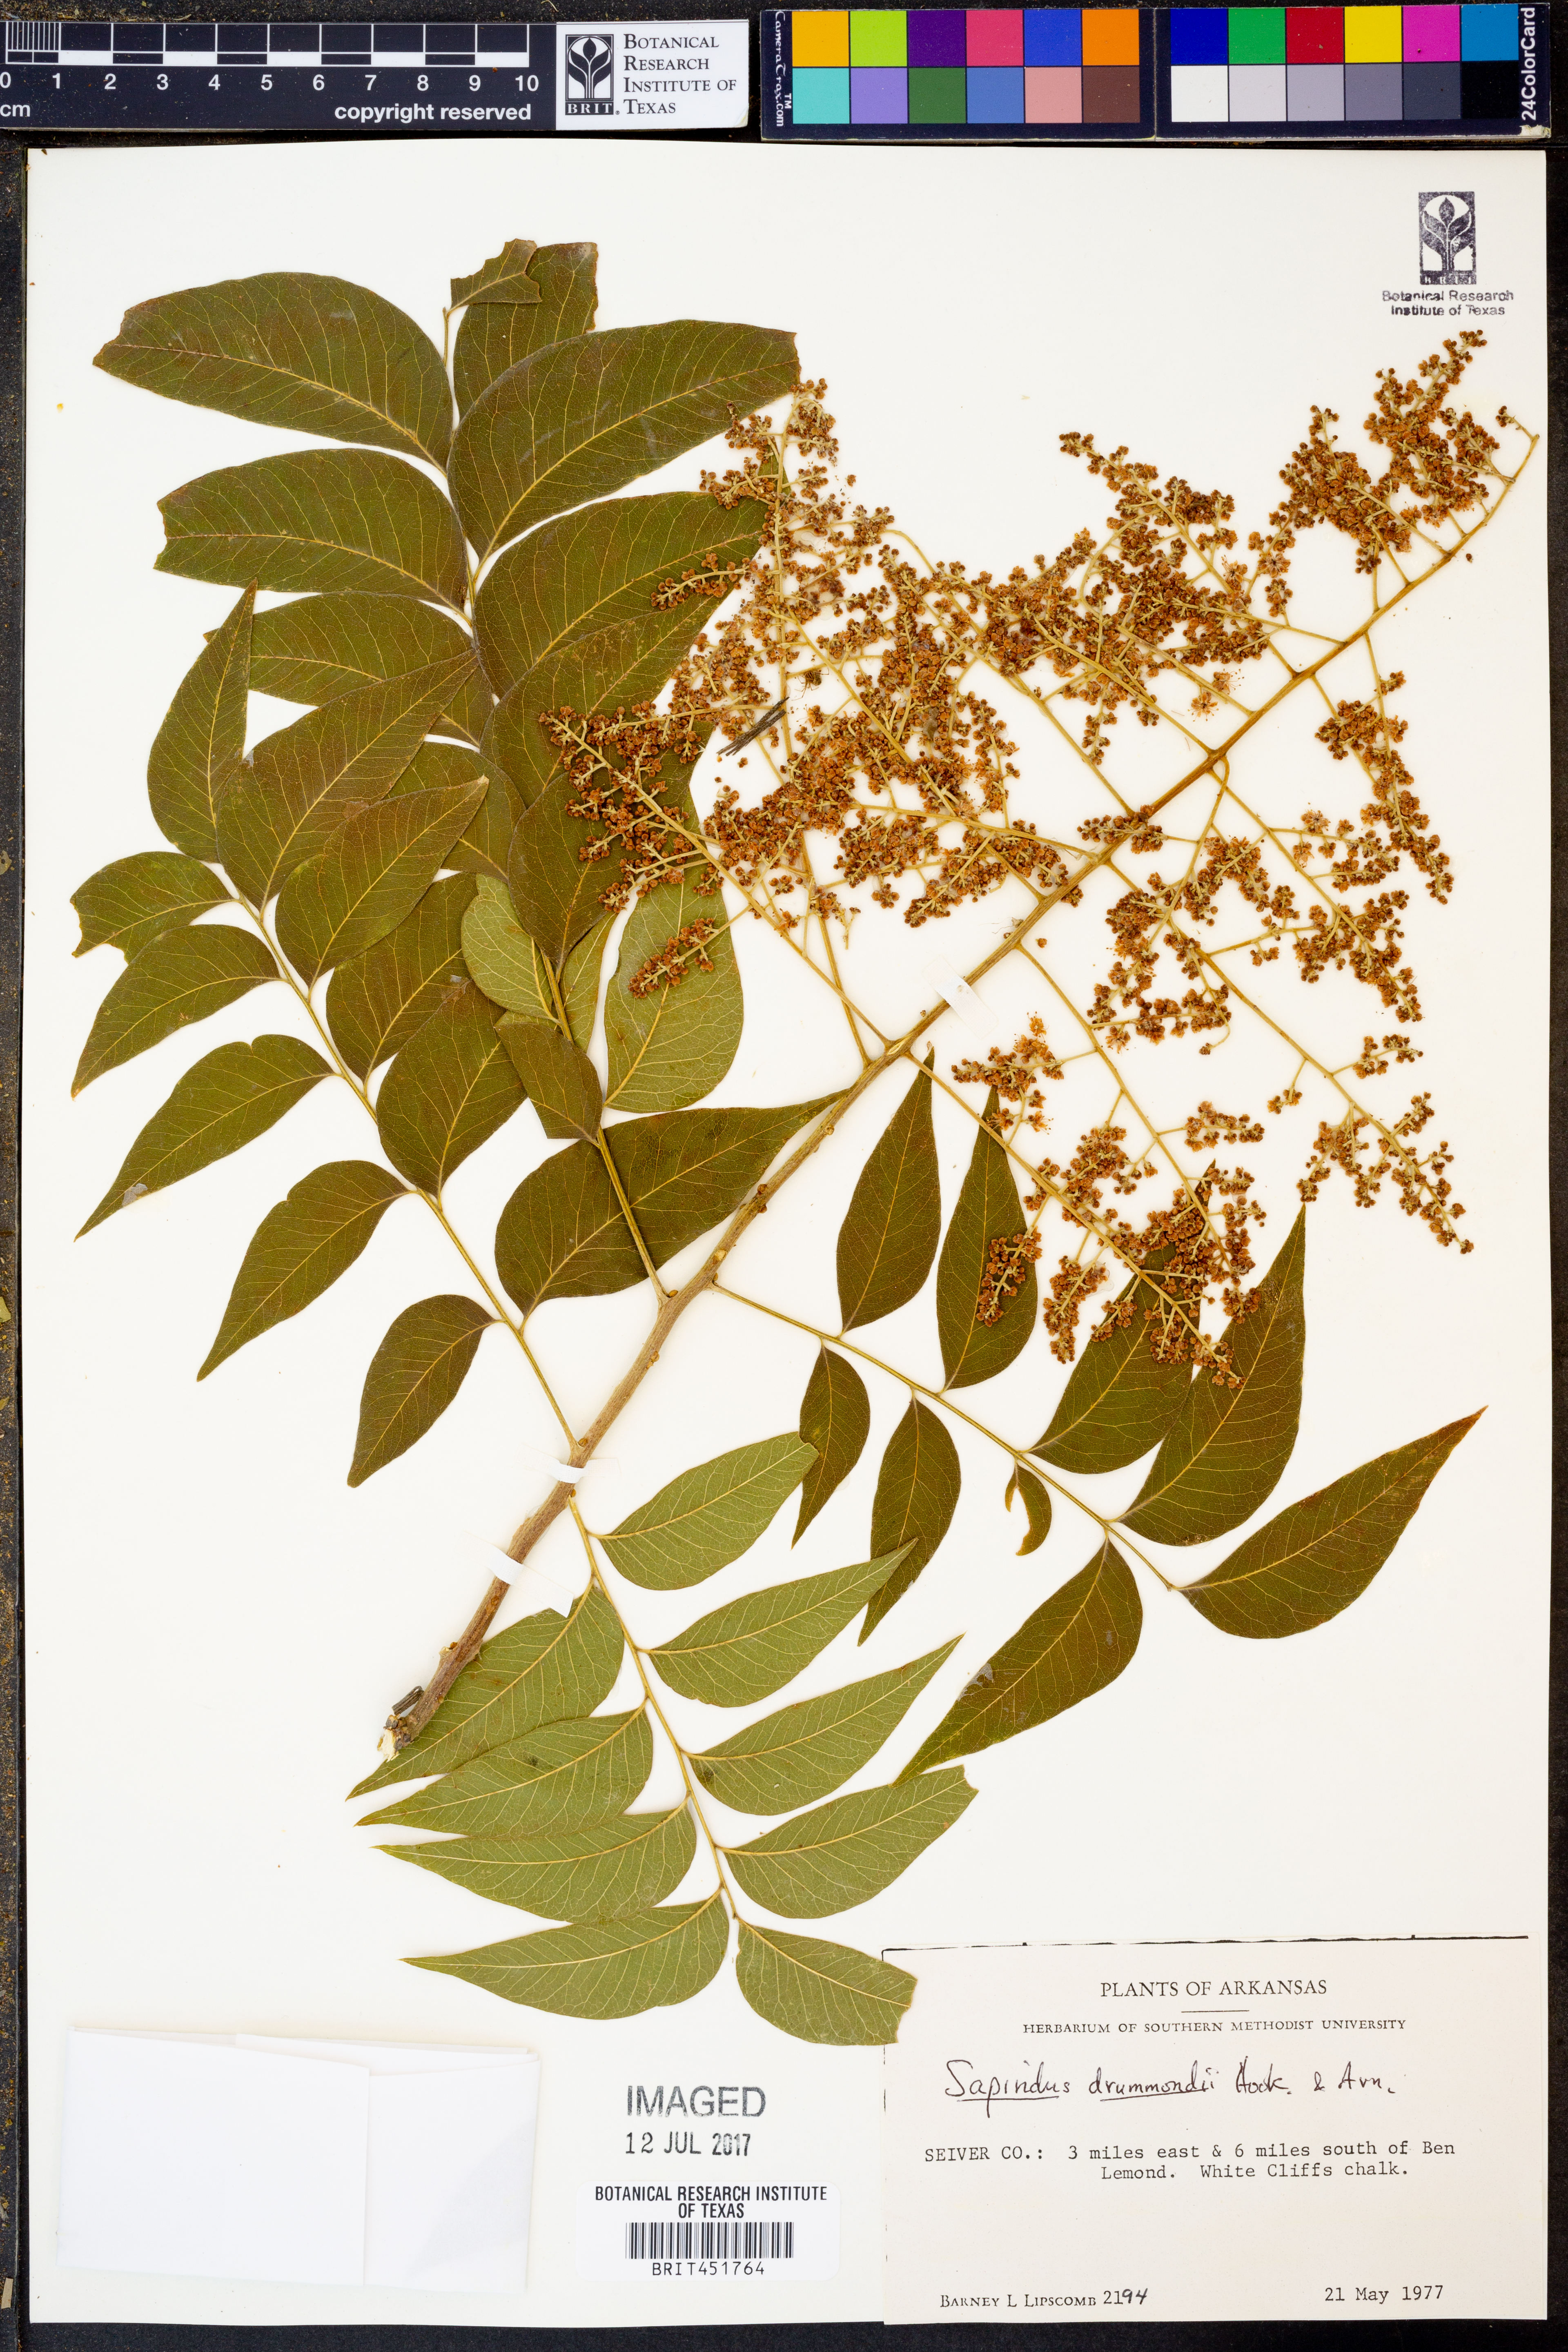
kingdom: Plantae
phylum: Tracheophyta
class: Magnoliopsida
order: Sapindales
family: Sapindaceae
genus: Sapindus
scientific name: Sapindus drummondii
